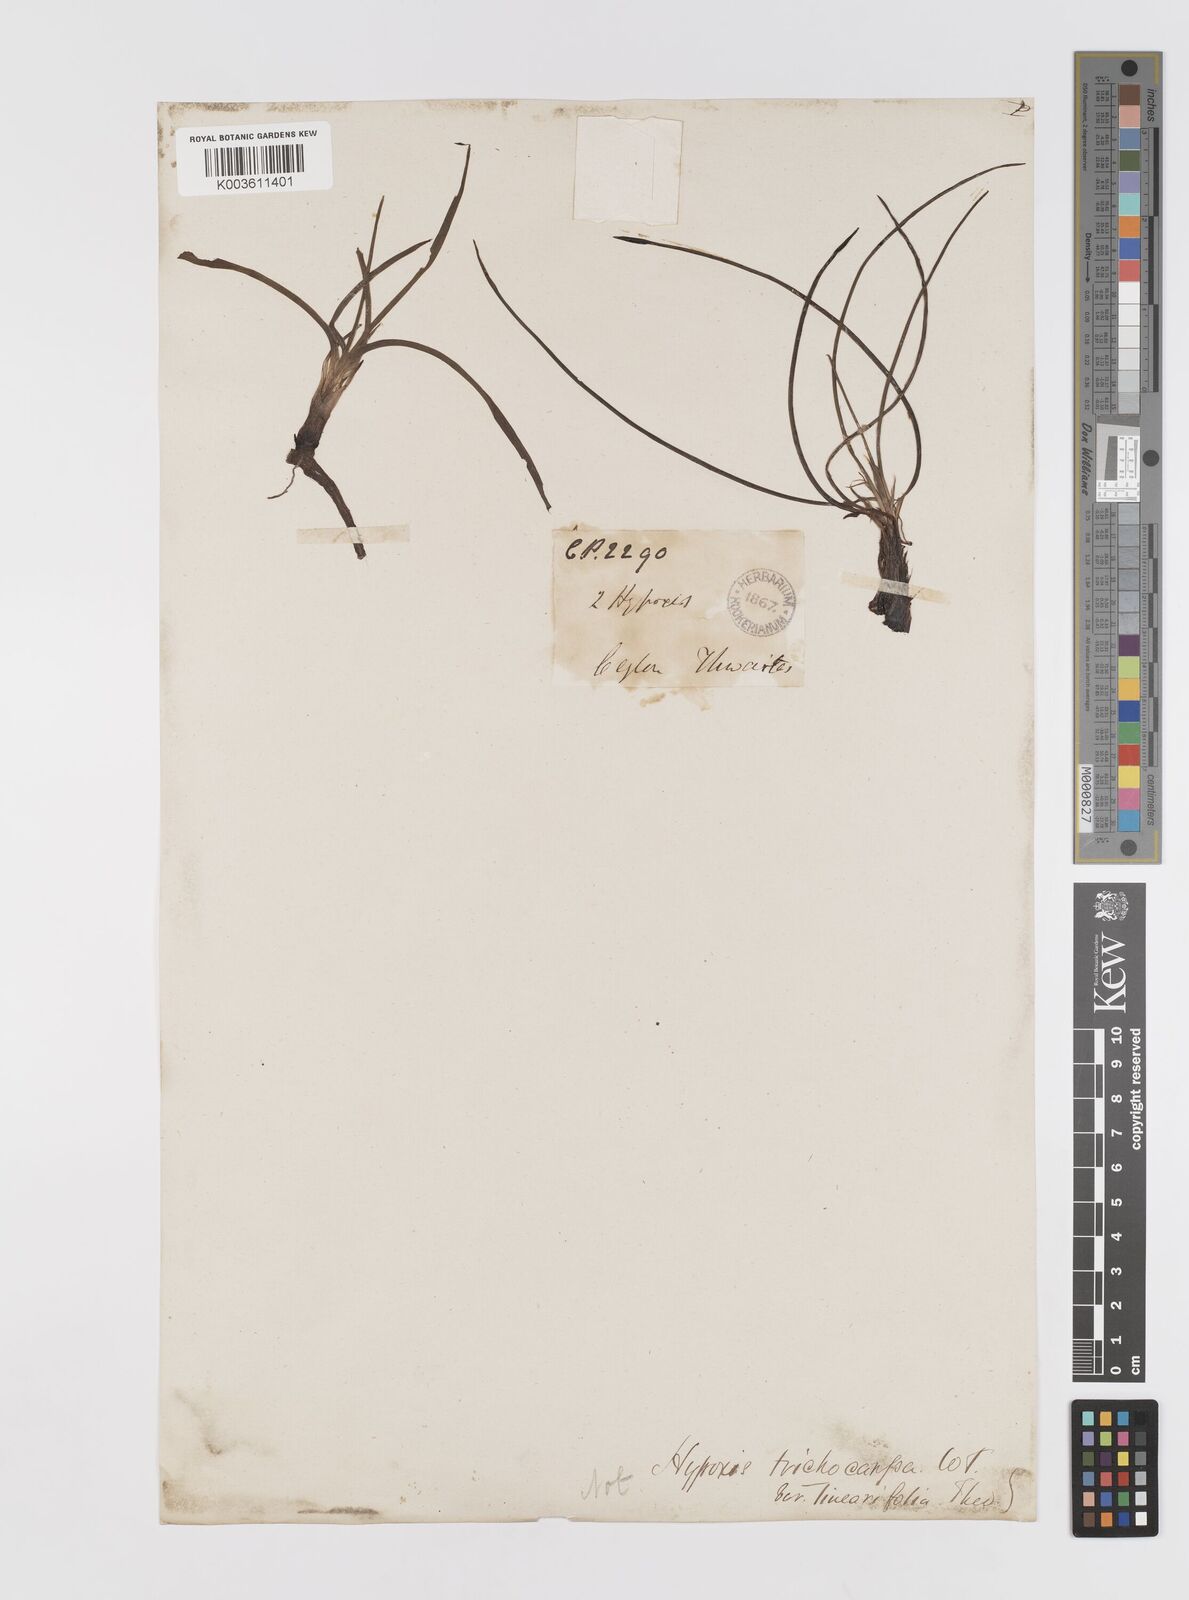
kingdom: Plantae
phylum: Tracheophyta
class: Liliopsida
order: Asparagales
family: Hypoxidaceae
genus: Hypoxis
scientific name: Hypoxis aurea
